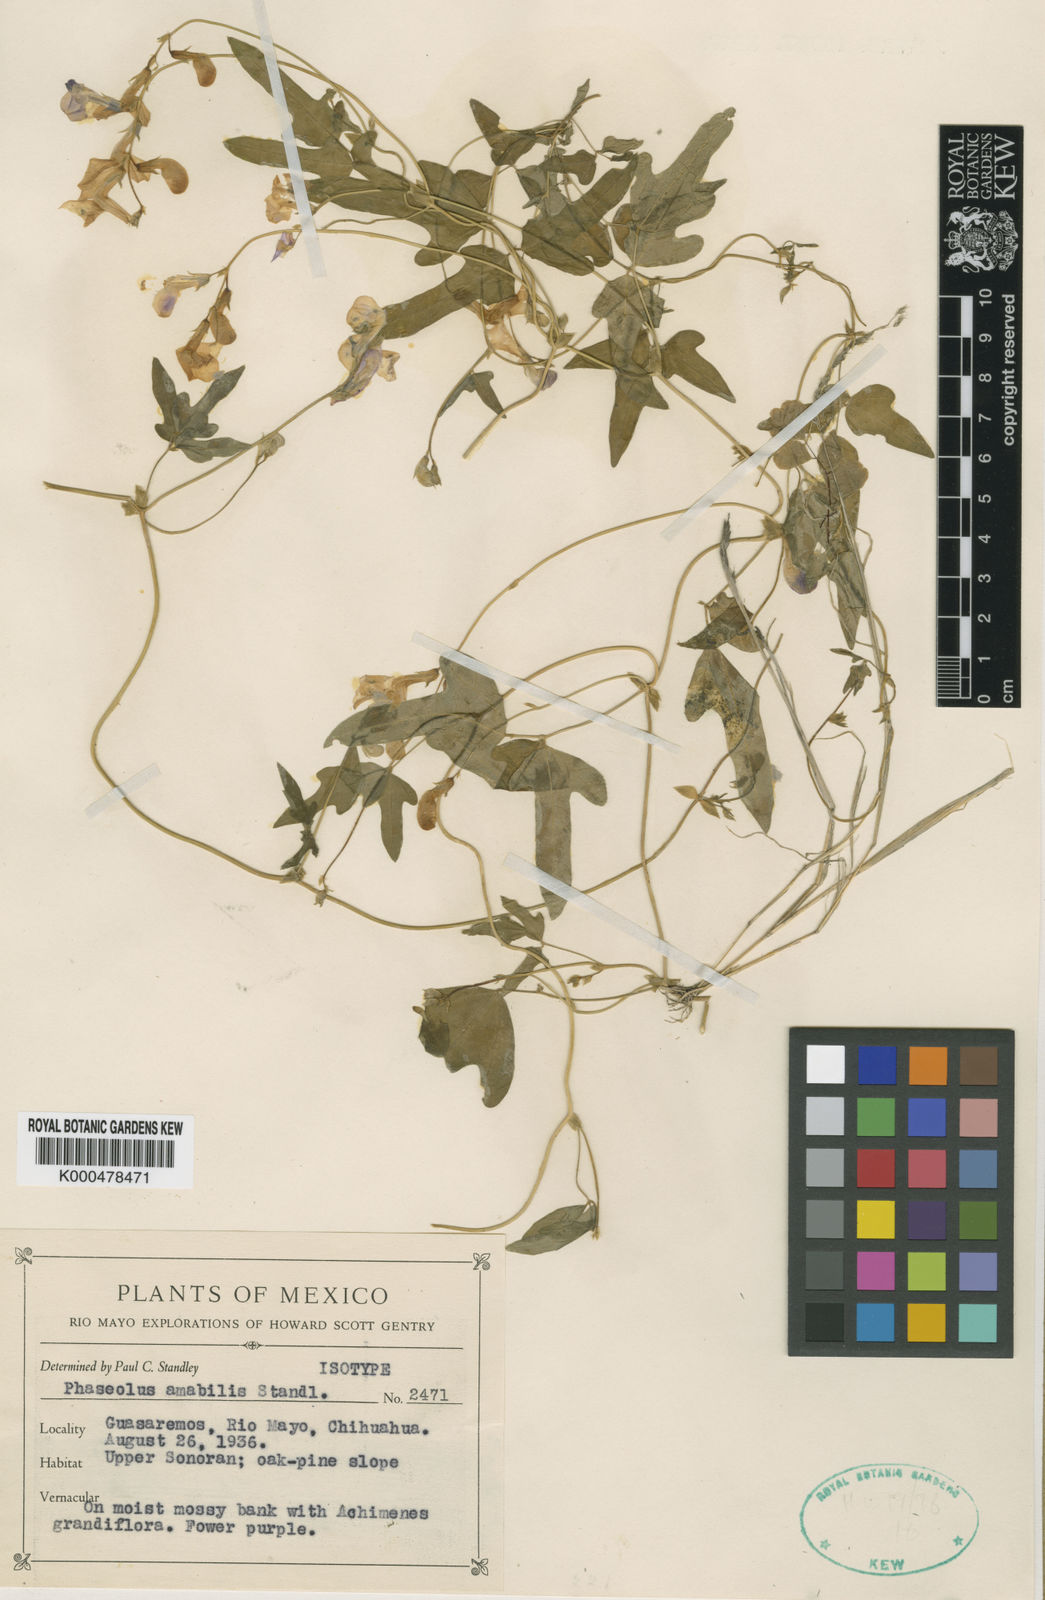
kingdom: Plantae
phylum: Tracheophyta
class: Magnoliopsida
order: Fabales
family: Fabaceae
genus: Phaseolus
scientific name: Phaseolus amabilis
